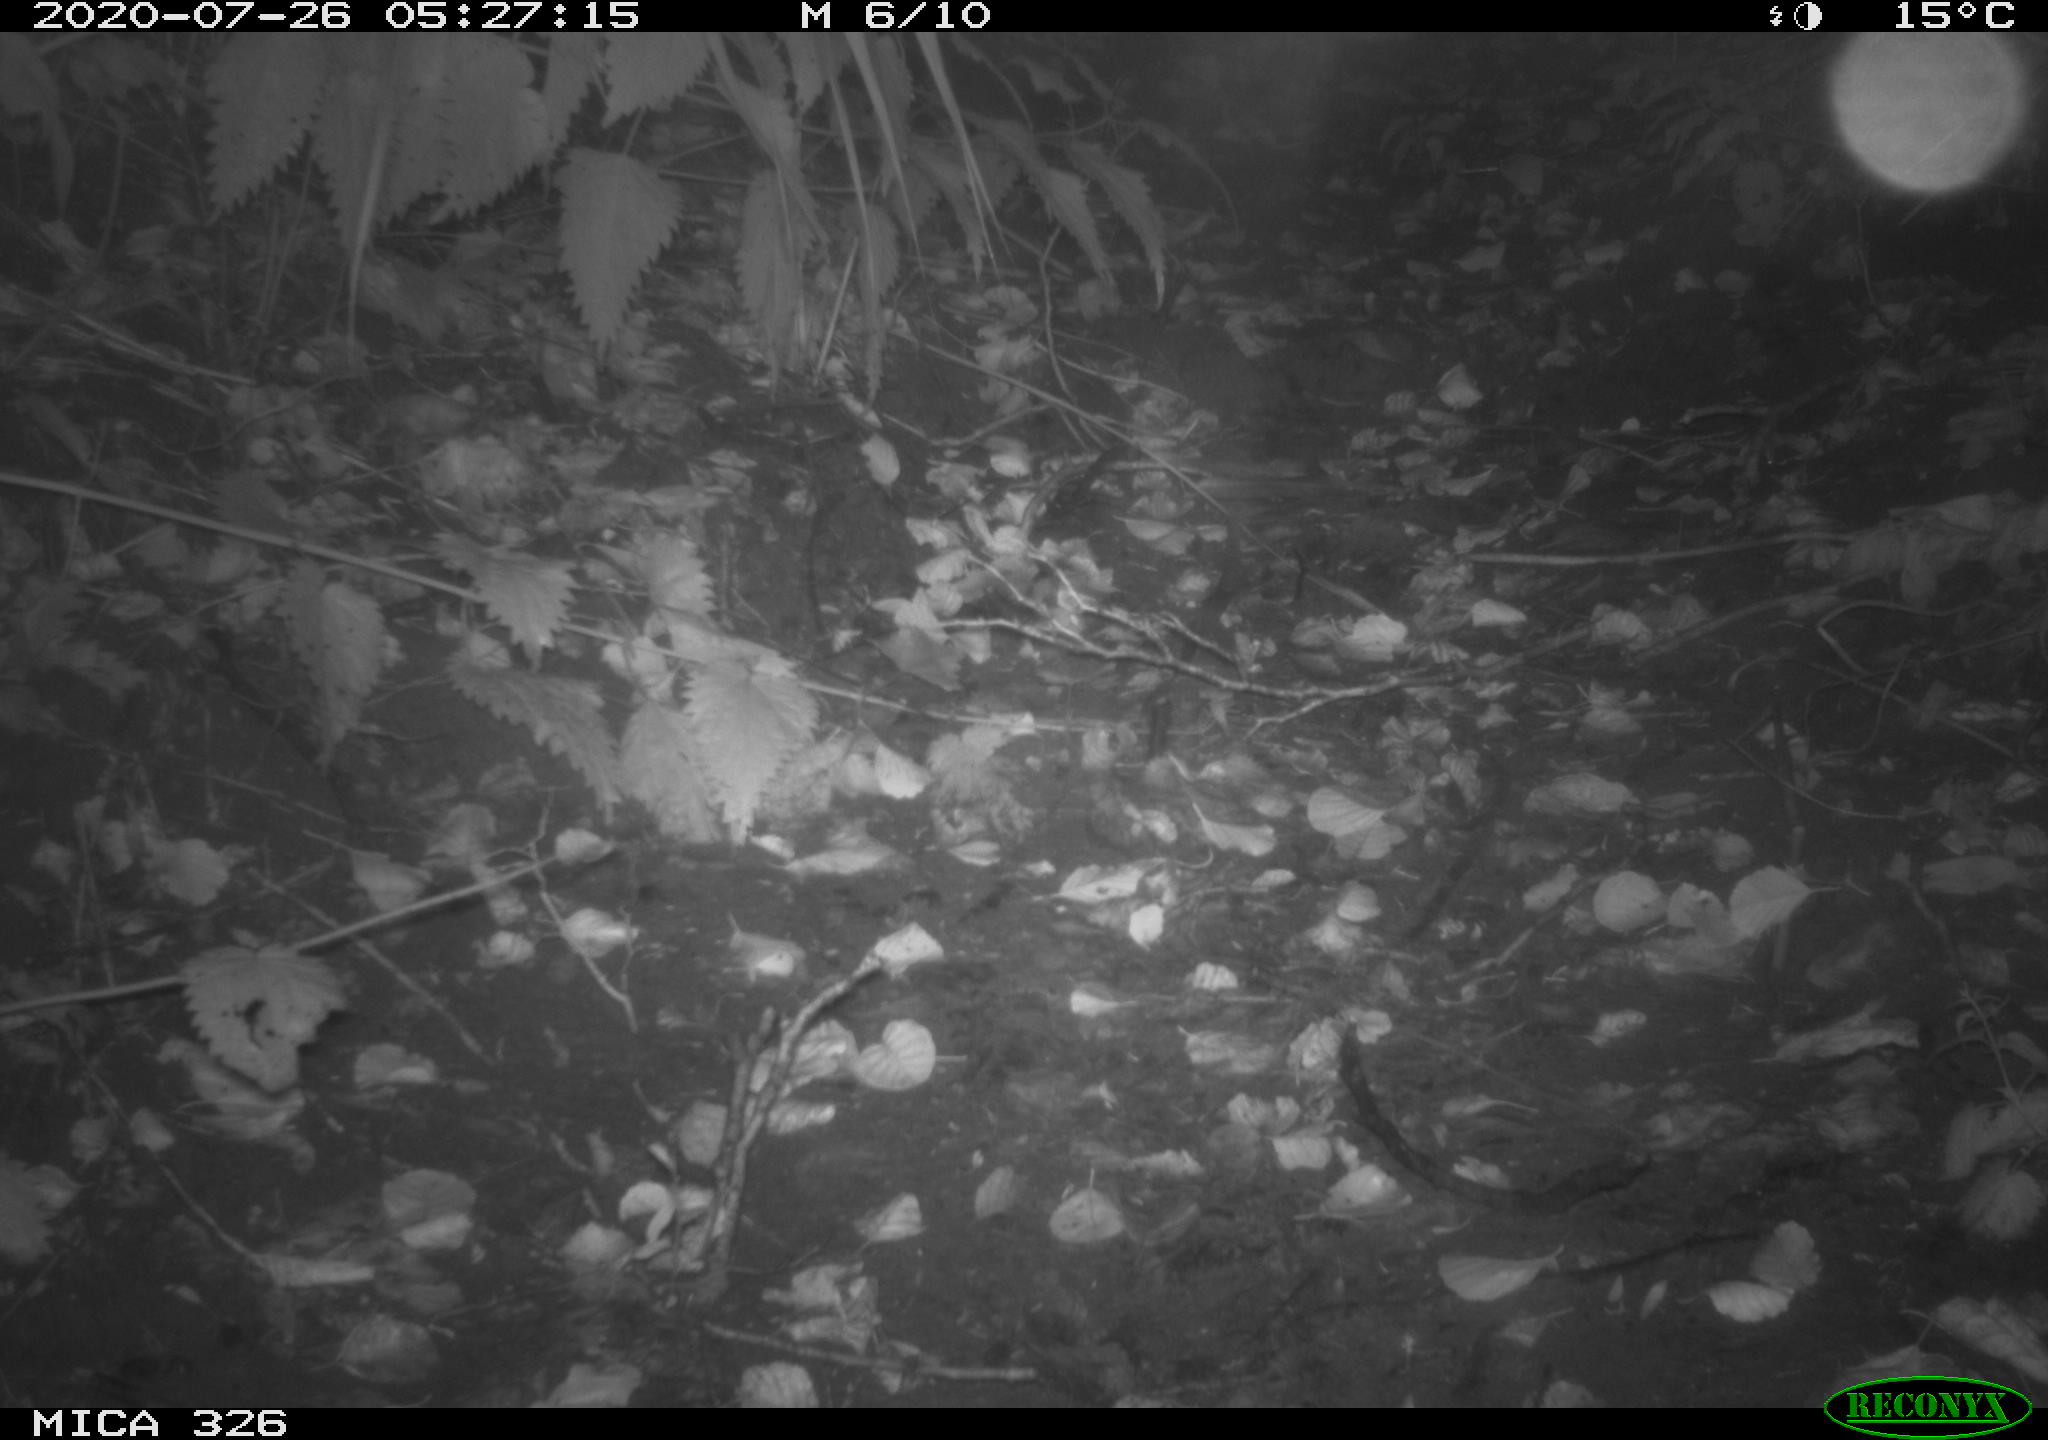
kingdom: Animalia
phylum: Chordata
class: Mammalia
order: Rodentia
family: Muridae
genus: Rattus
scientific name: Rattus norvegicus
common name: Brown rat
